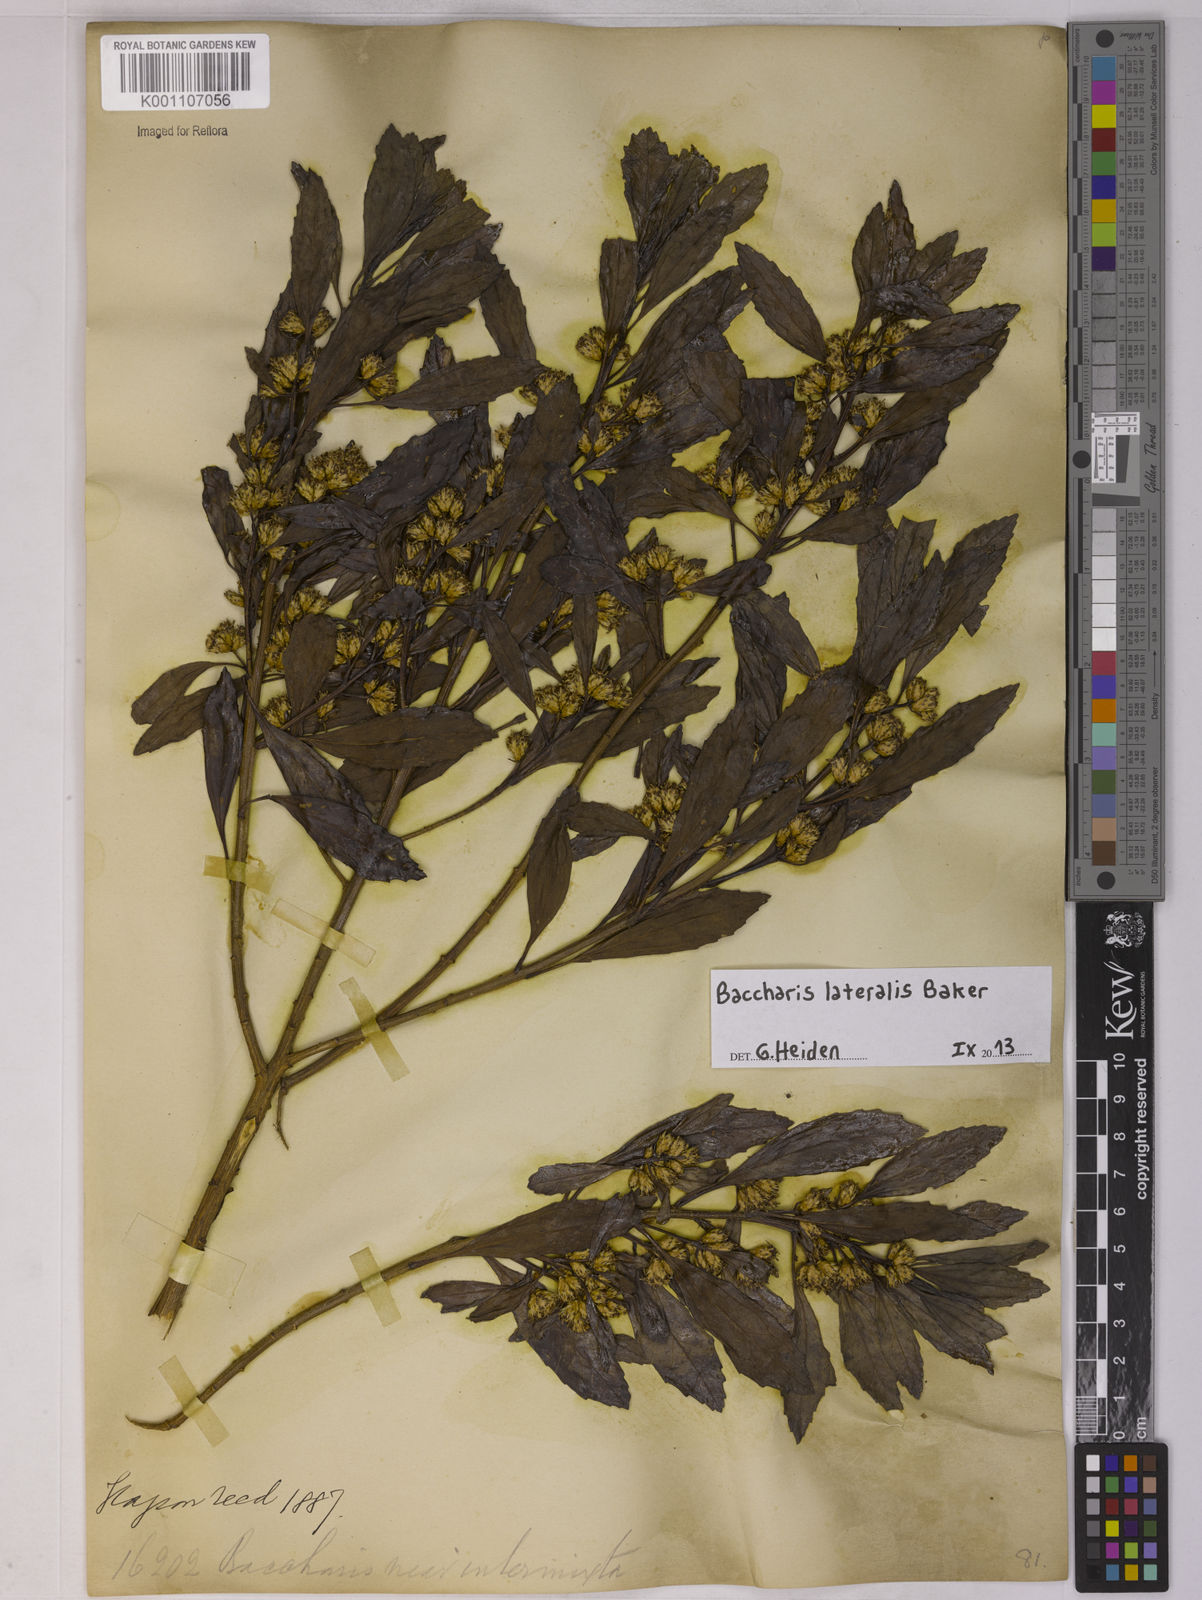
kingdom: Plantae
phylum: Tracheophyta
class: Magnoliopsida
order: Asterales
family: Asteraceae
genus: Baccharis
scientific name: Baccharis lateralis
